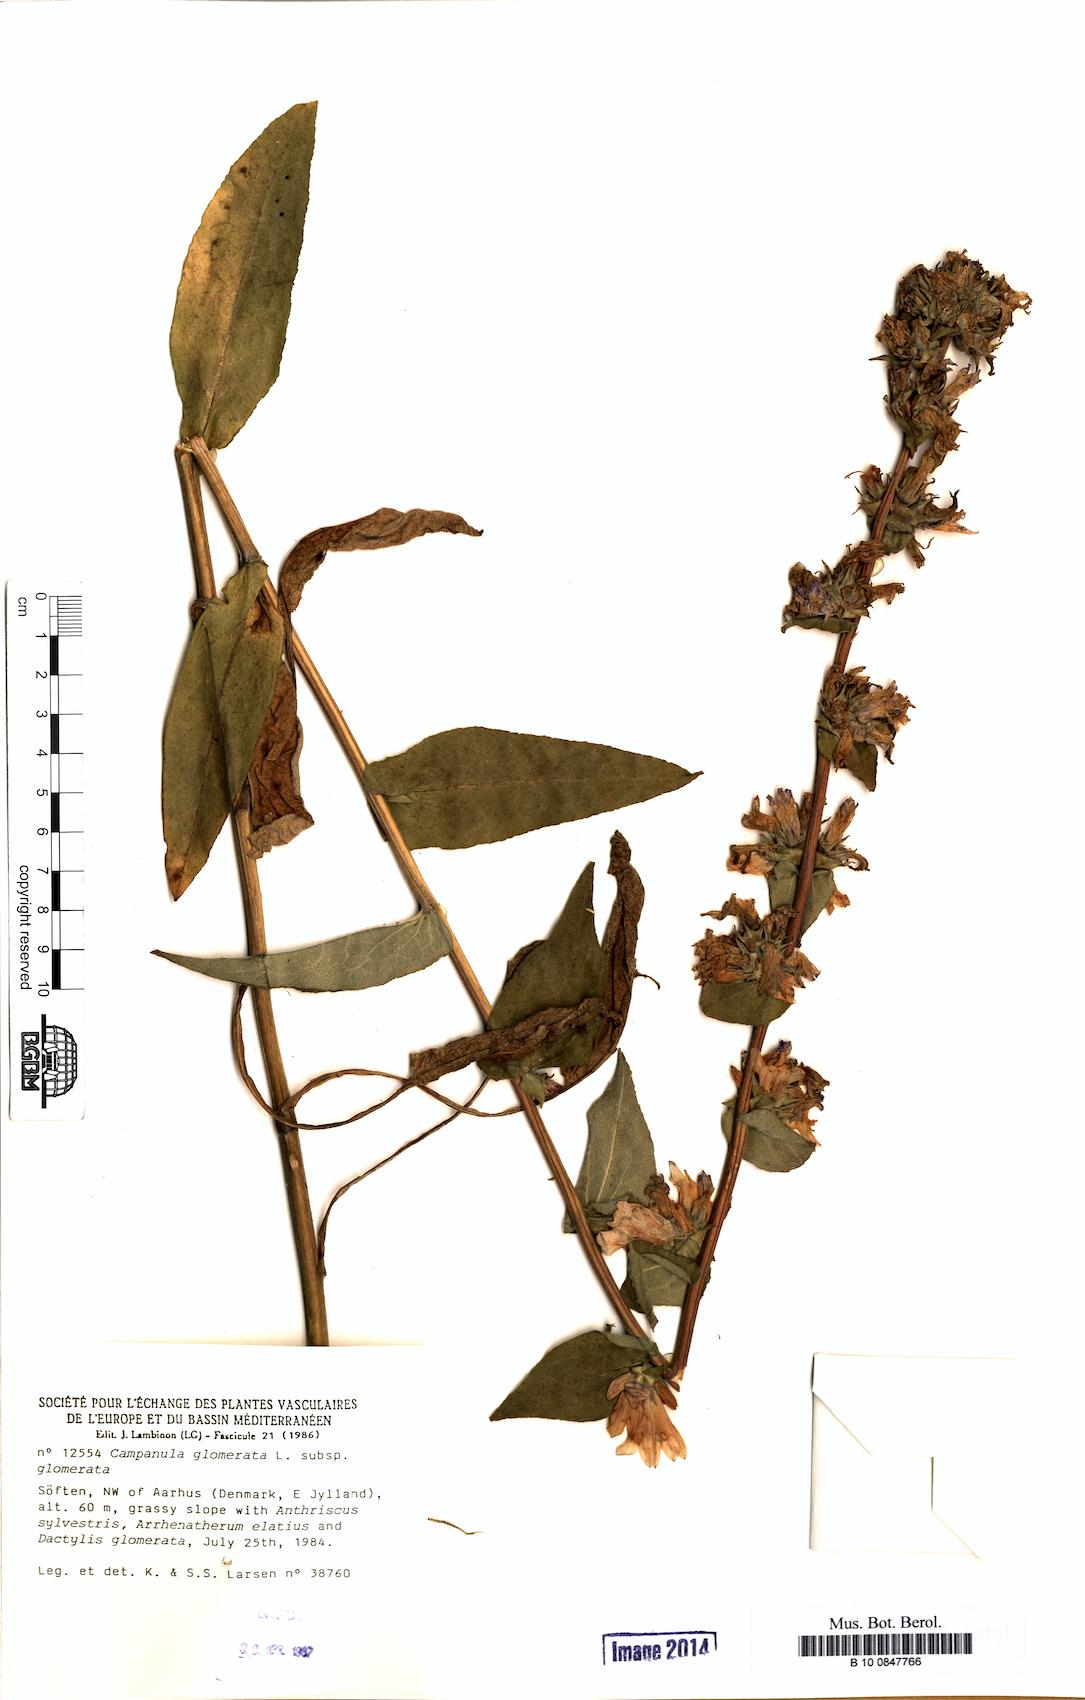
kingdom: Plantae
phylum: Tracheophyta
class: Magnoliopsida
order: Asterales
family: Campanulaceae
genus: Campanula
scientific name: Campanula glomerata
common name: Clustered bellflower
